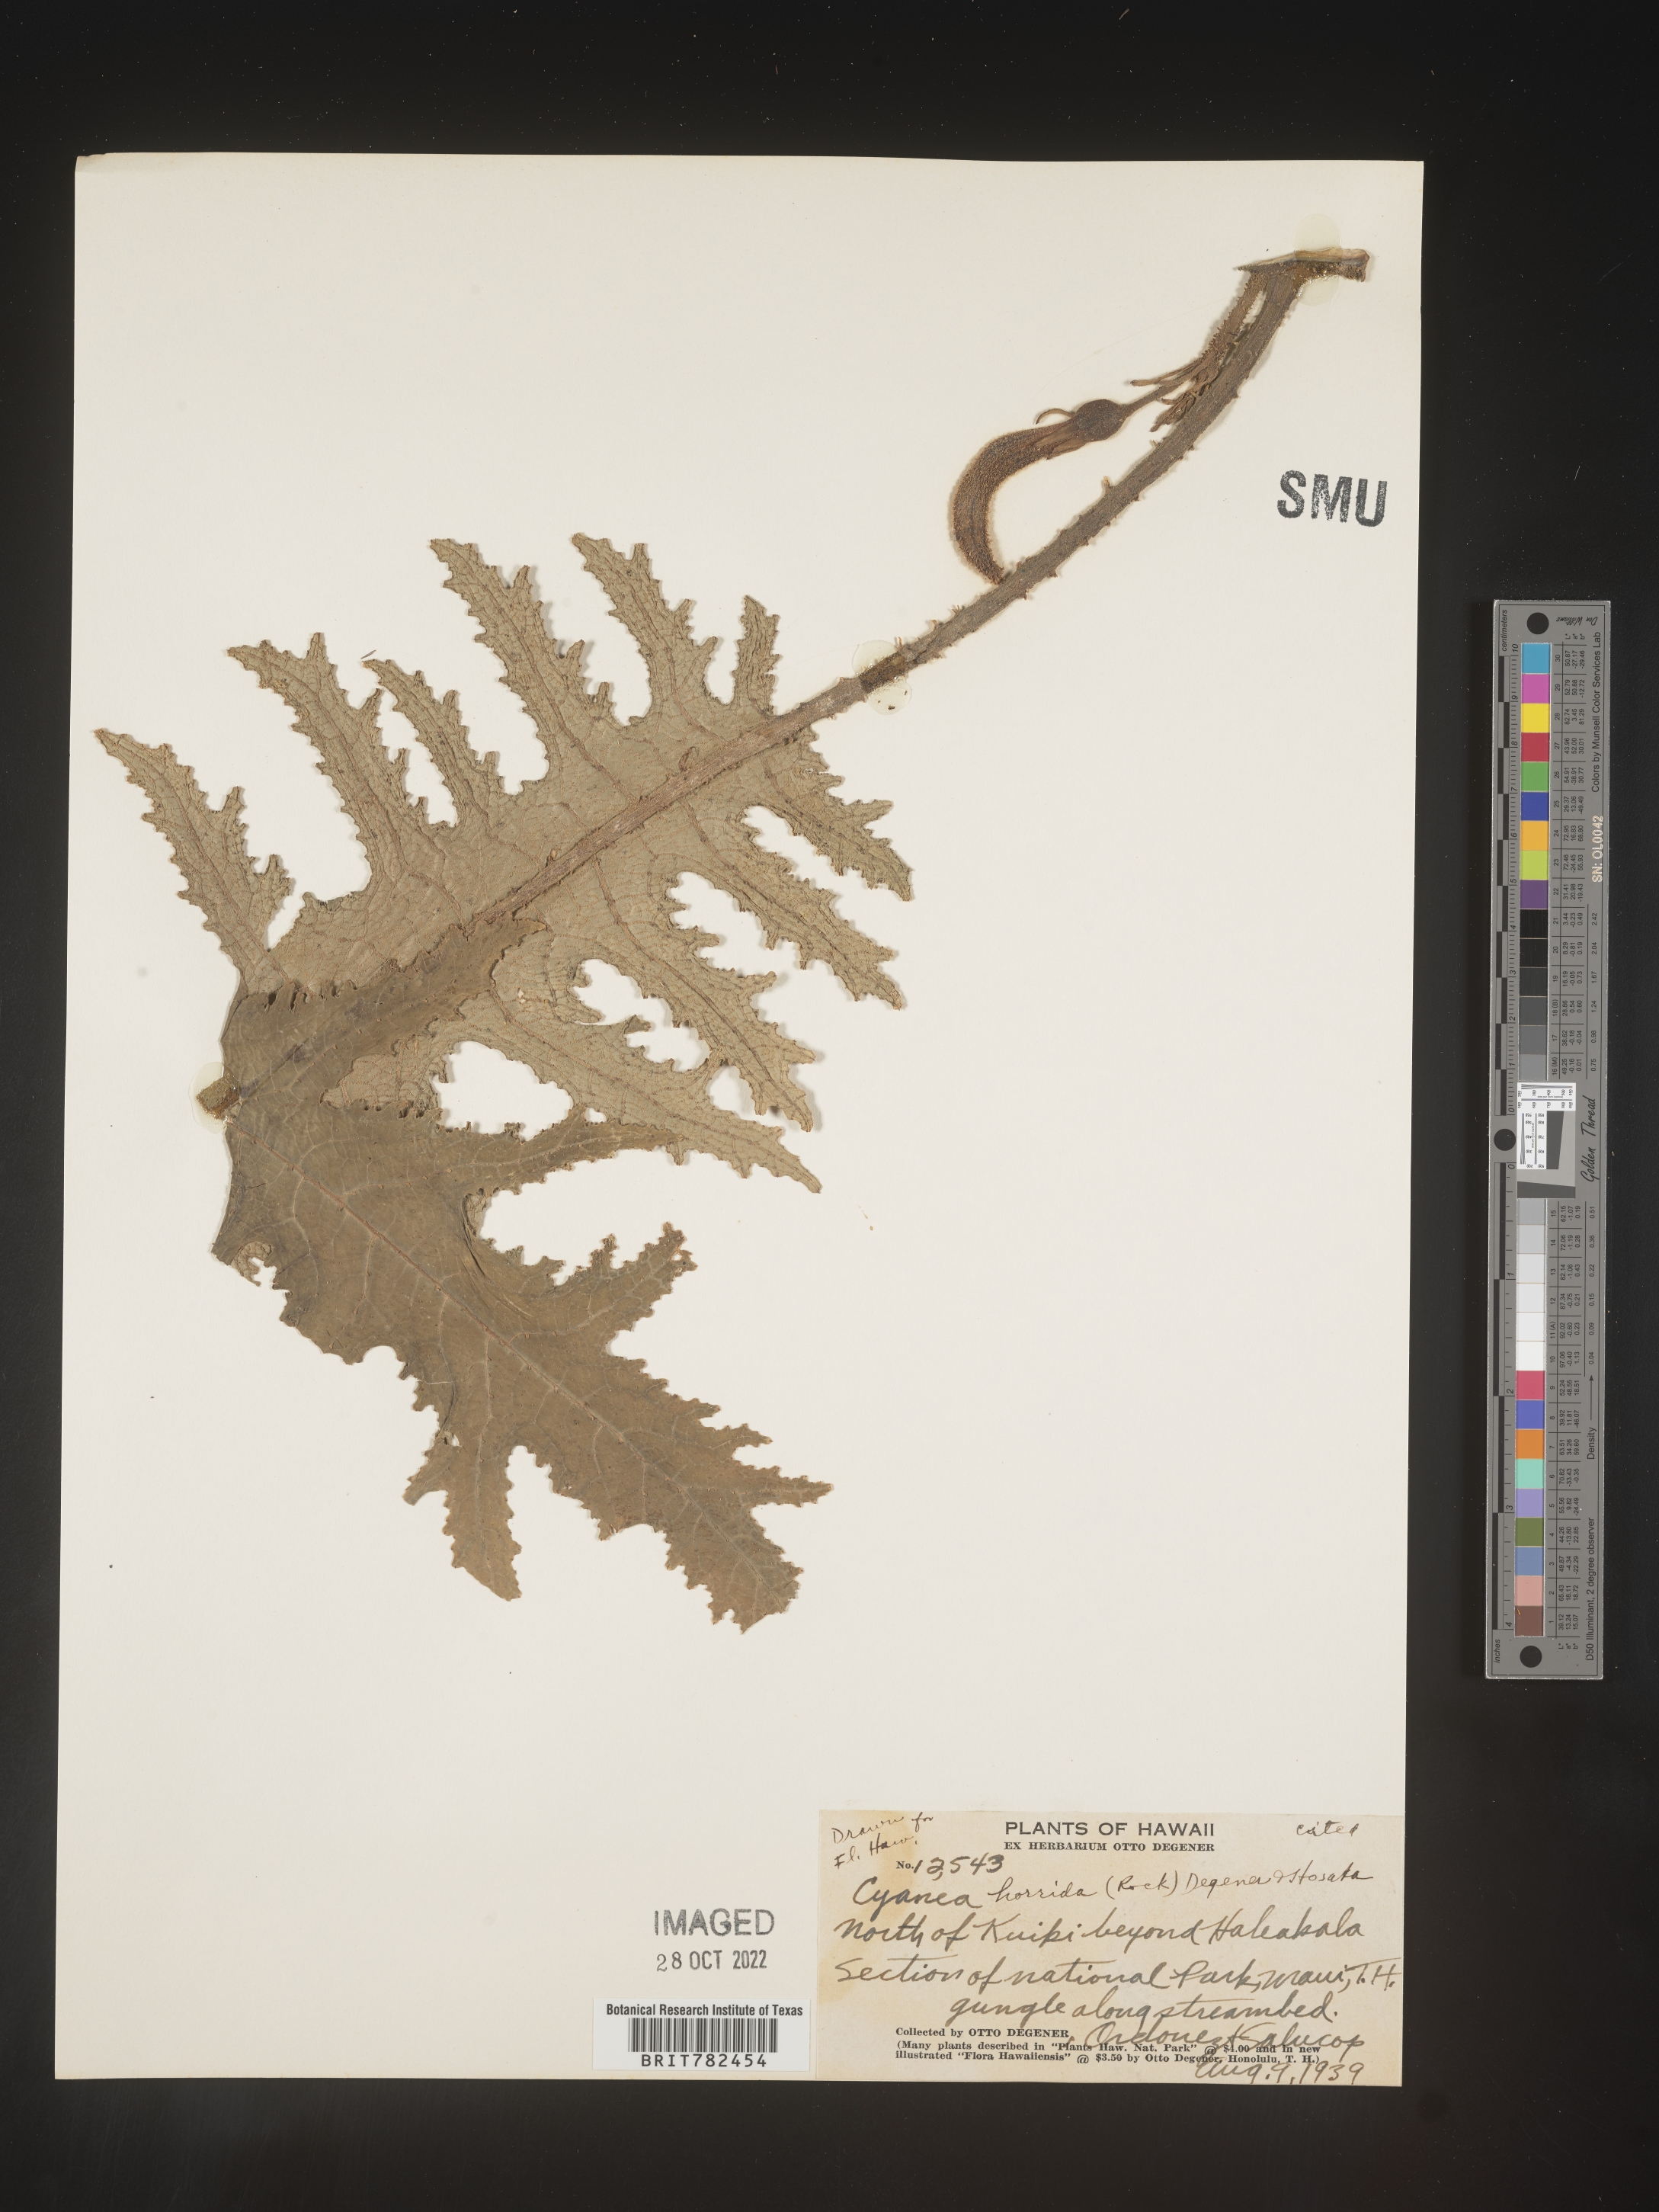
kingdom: Plantae
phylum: Tracheophyta
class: Magnoliopsida
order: Asterales
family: Campanulaceae
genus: Cyanea
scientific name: Cyanea
